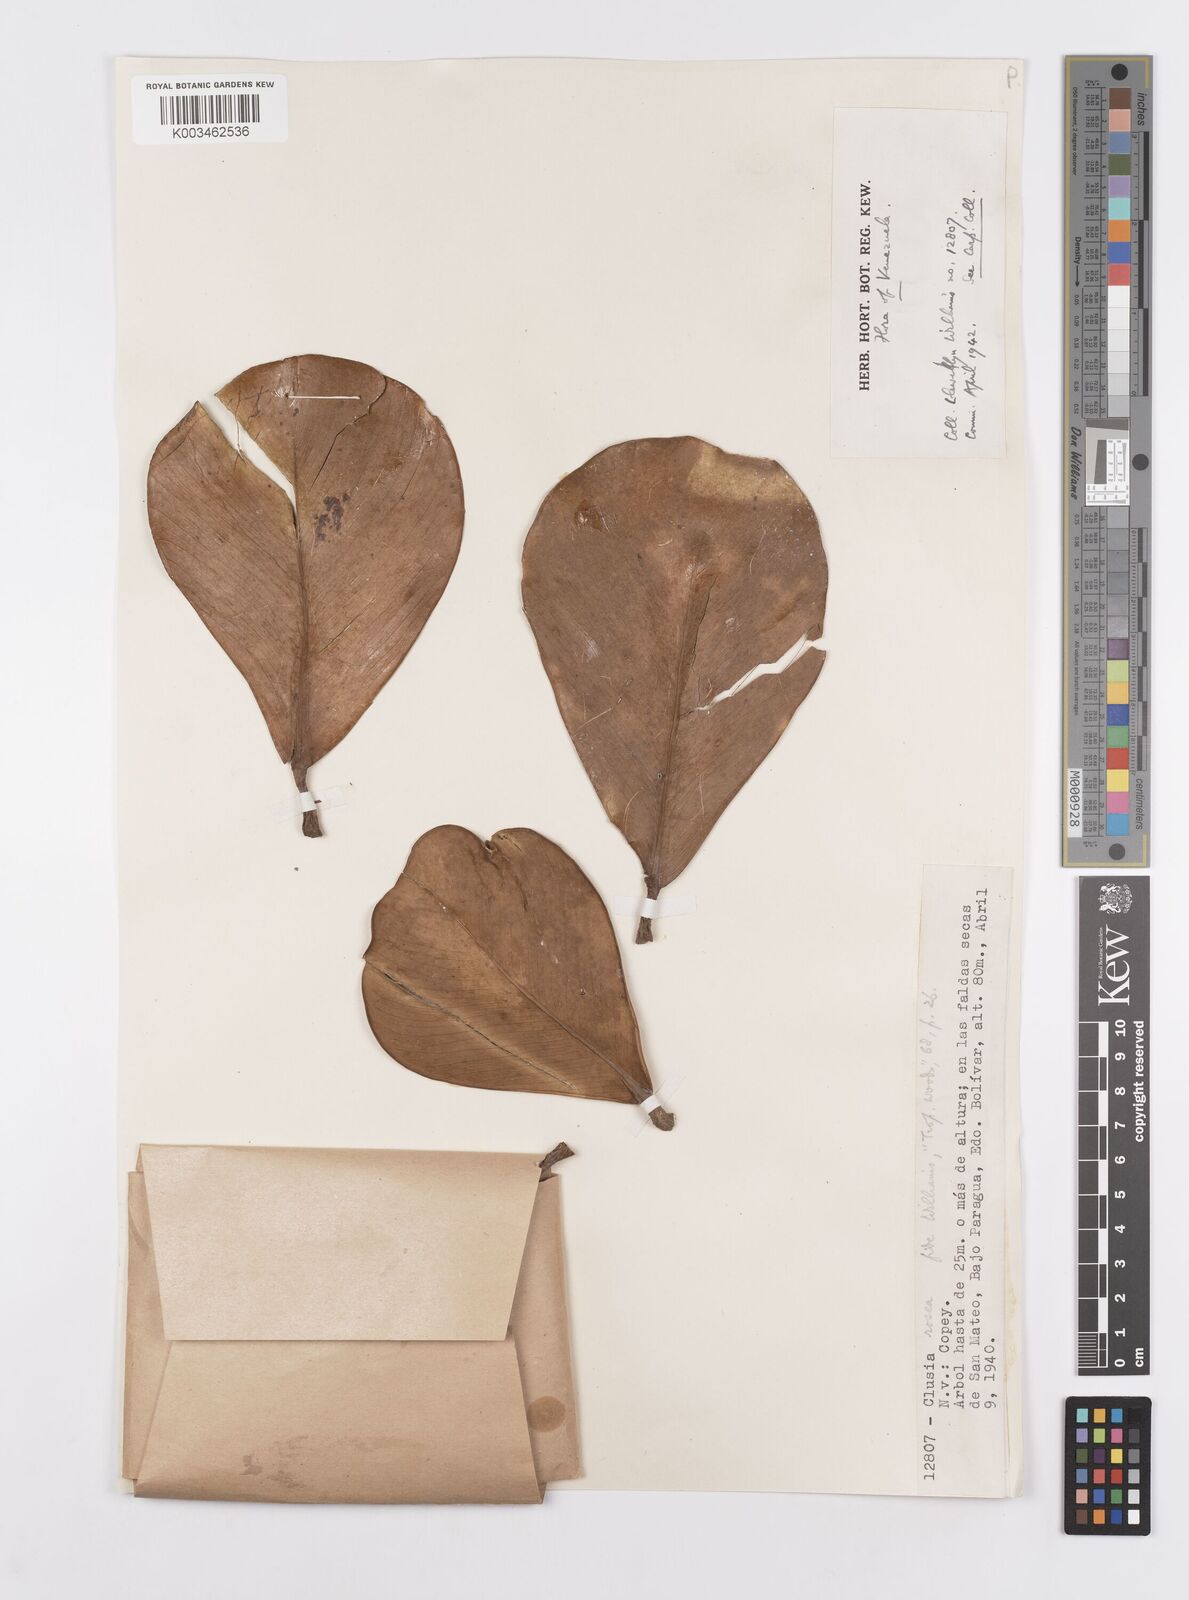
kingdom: Plantae
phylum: Tracheophyta
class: Magnoliopsida
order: Malpighiales
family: Clusiaceae
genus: Clusia
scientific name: Clusia rosea
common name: Scotch attorney
